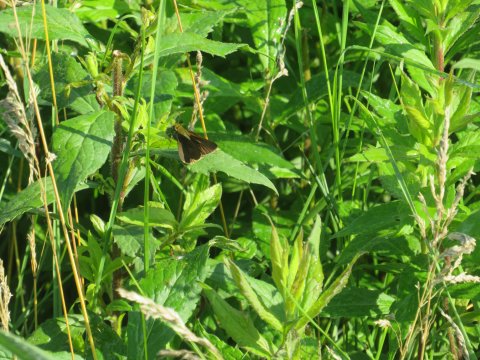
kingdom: Animalia
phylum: Arthropoda
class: Insecta
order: Lepidoptera
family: Hesperiidae
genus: Euphyes
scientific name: Euphyes vestris
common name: Dun Skipper
